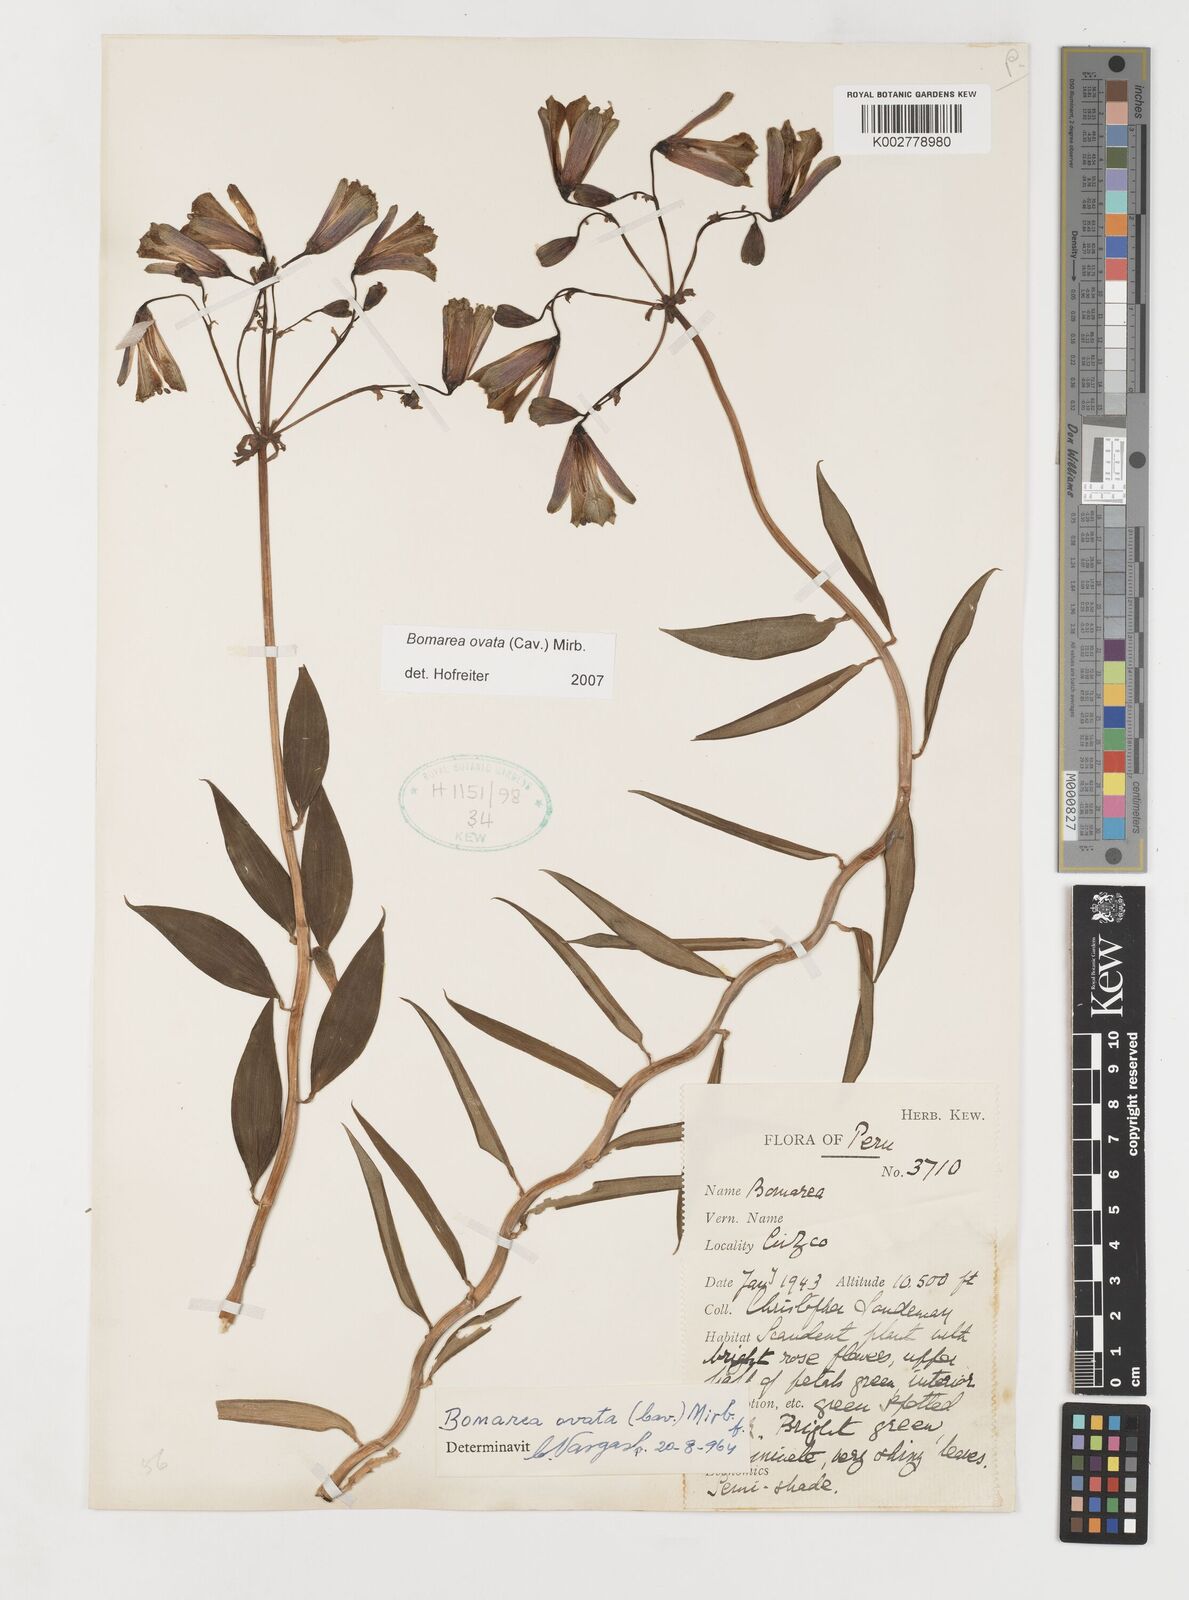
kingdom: Plantae
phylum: Tracheophyta
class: Liliopsida
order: Liliales
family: Alstroemeriaceae
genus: Bomarea
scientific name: Bomarea ovata
